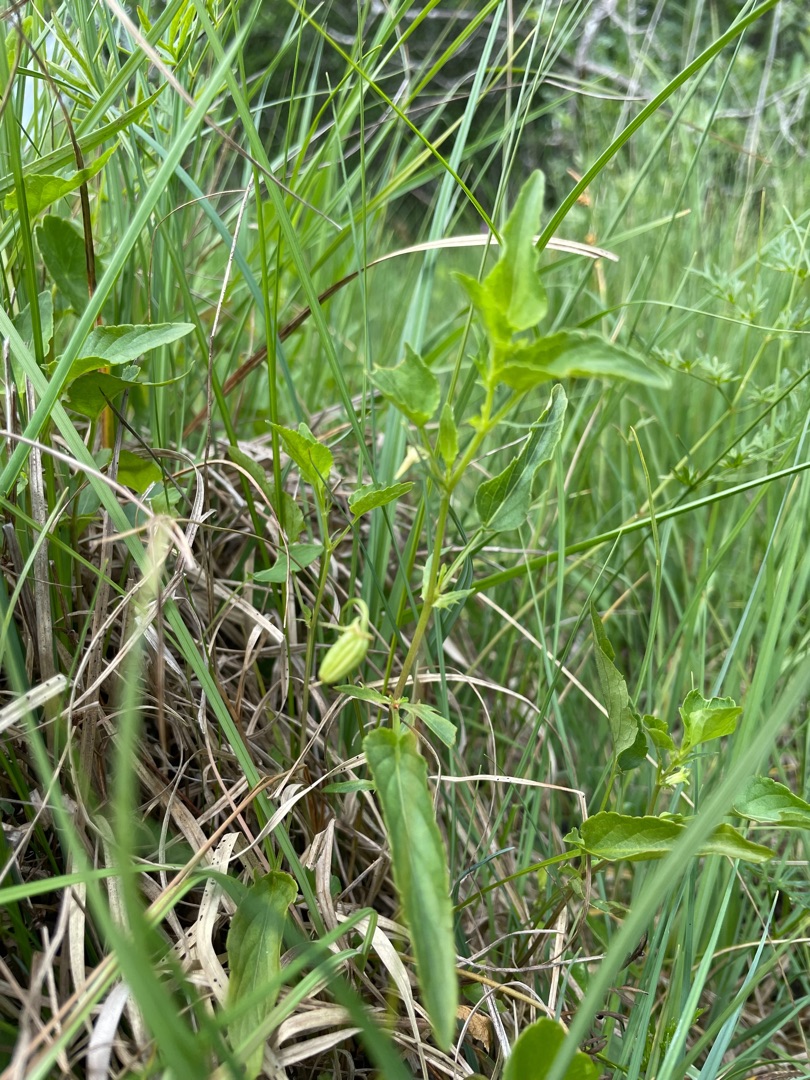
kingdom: Plantae
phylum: Tracheophyta
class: Magnoliopsida
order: Malpighiales
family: Violaceae
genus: Viola
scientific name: Viola stagnina
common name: Rank viol
